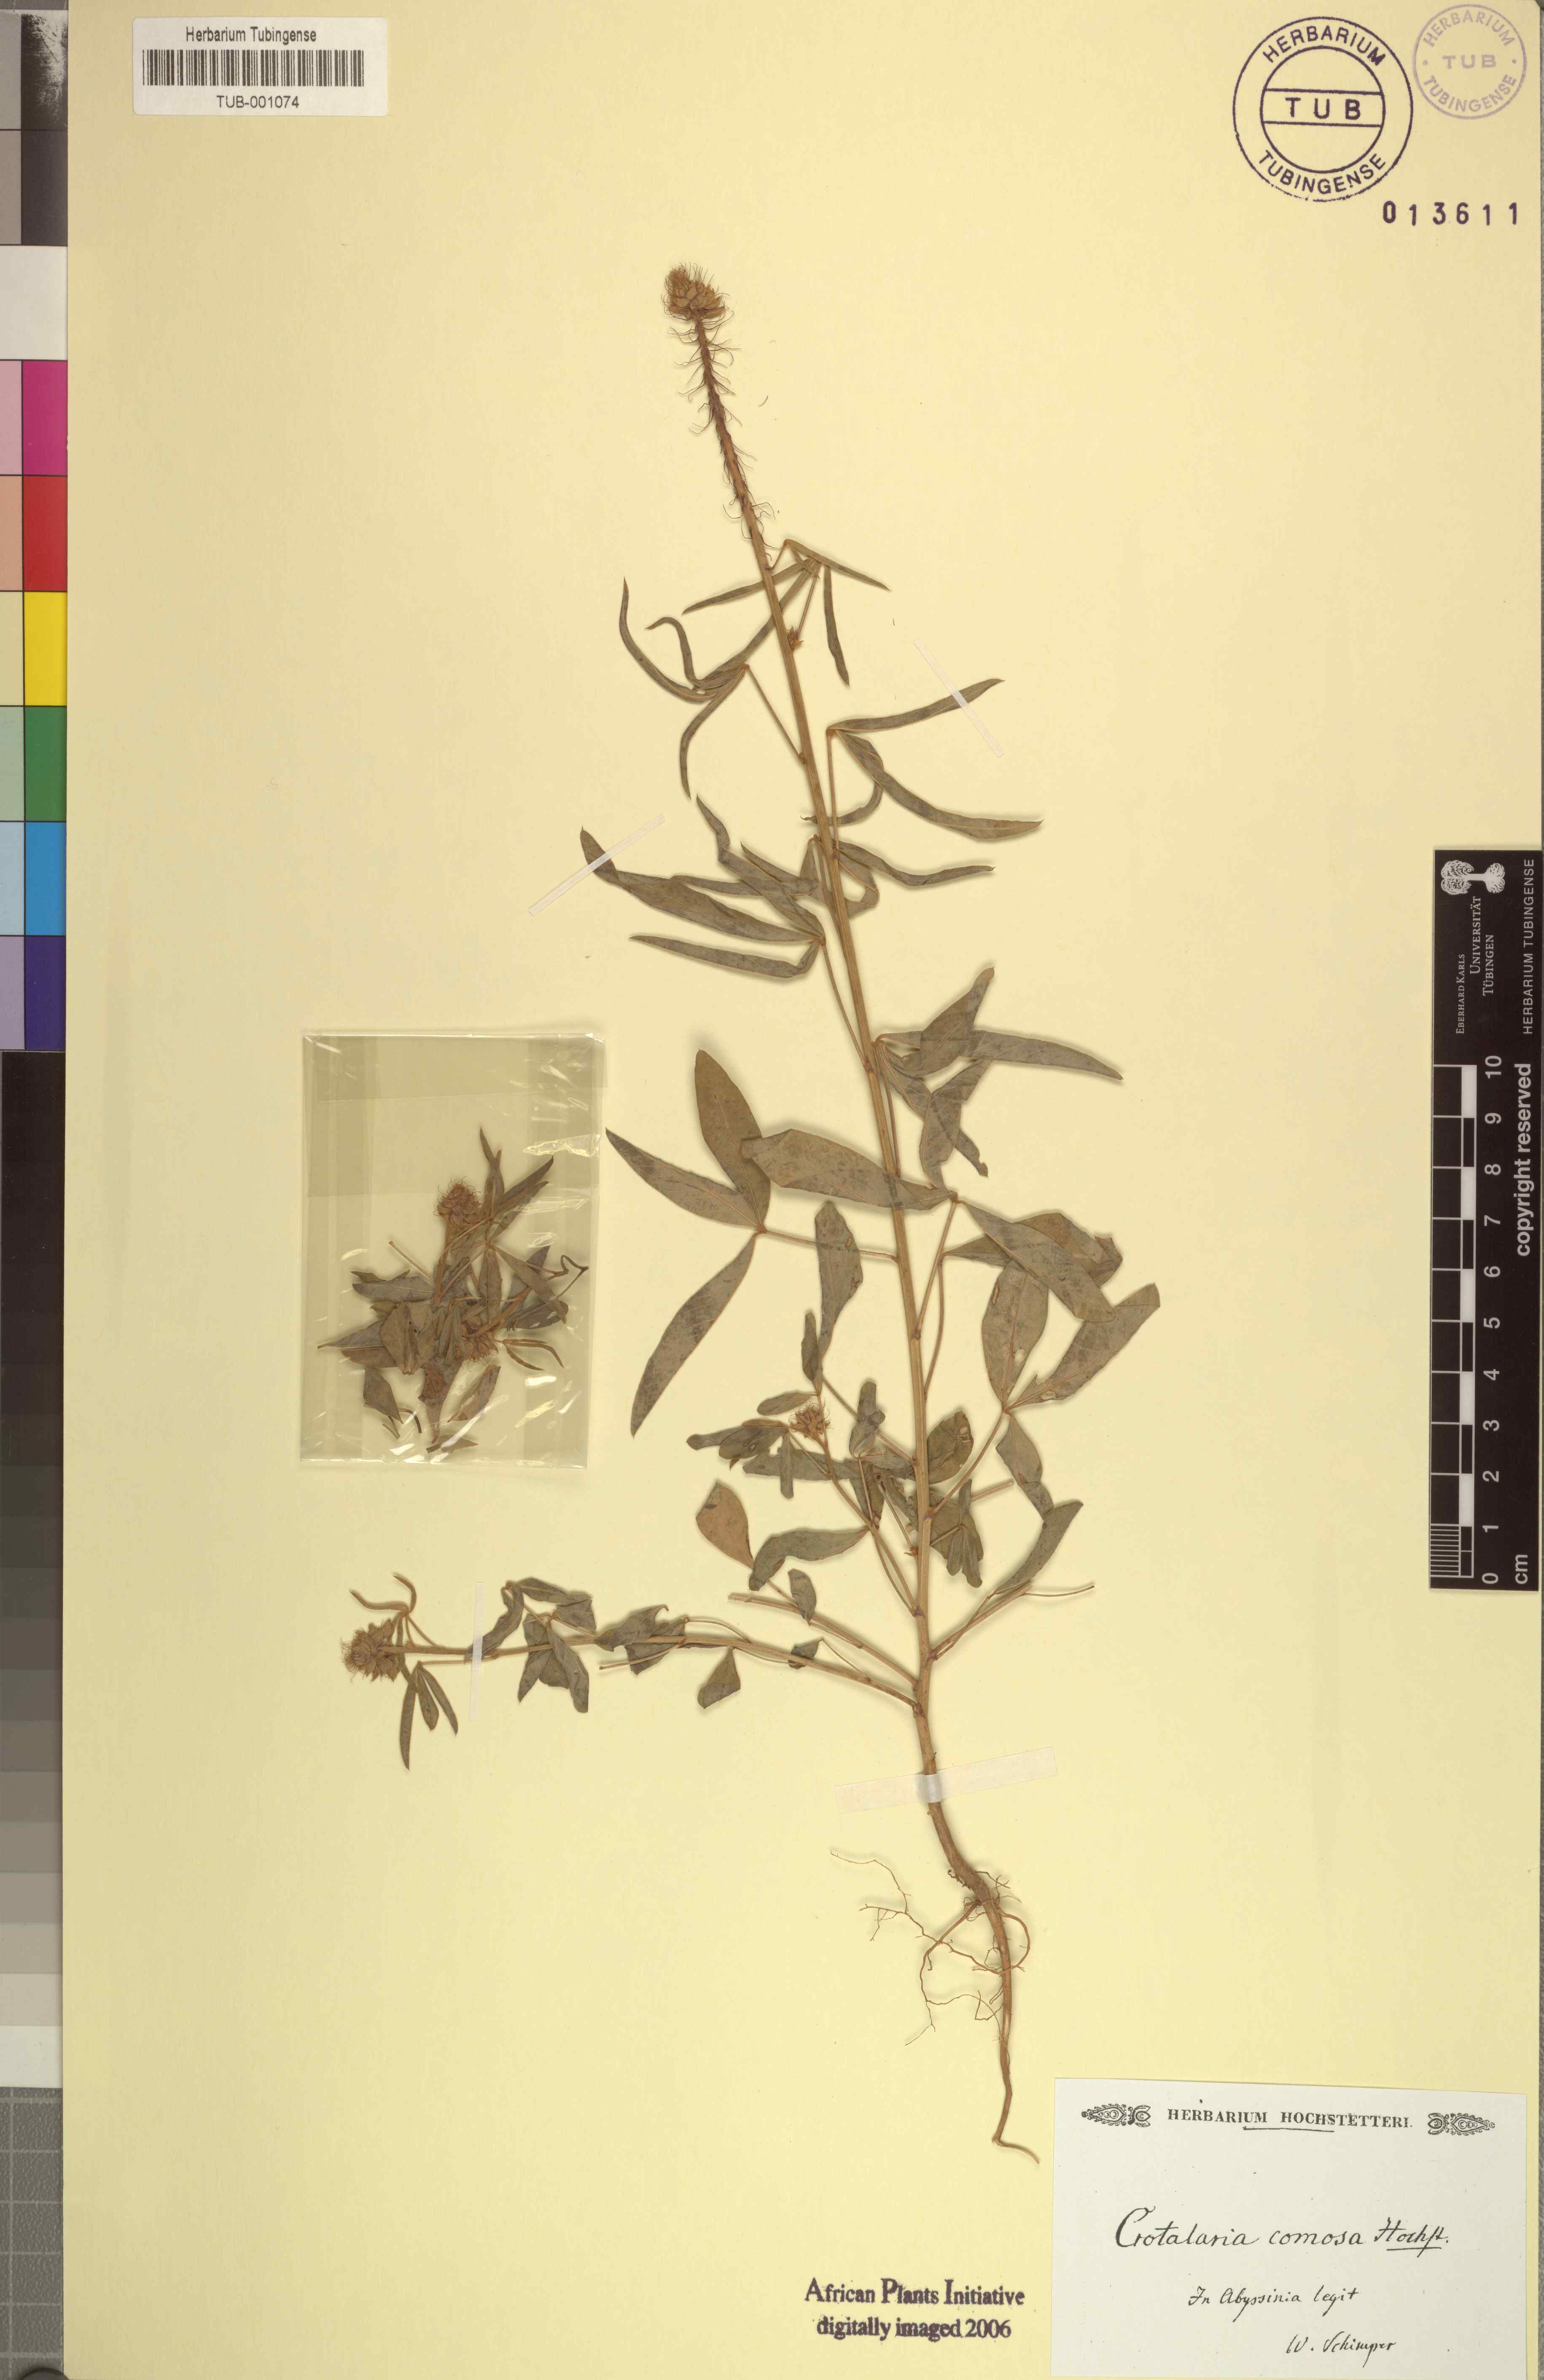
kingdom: Plantae
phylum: Tracheophyta
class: Magnoliopsida
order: Fabales
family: Fabaceae
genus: Crotalaria
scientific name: Crotalaria comosa
